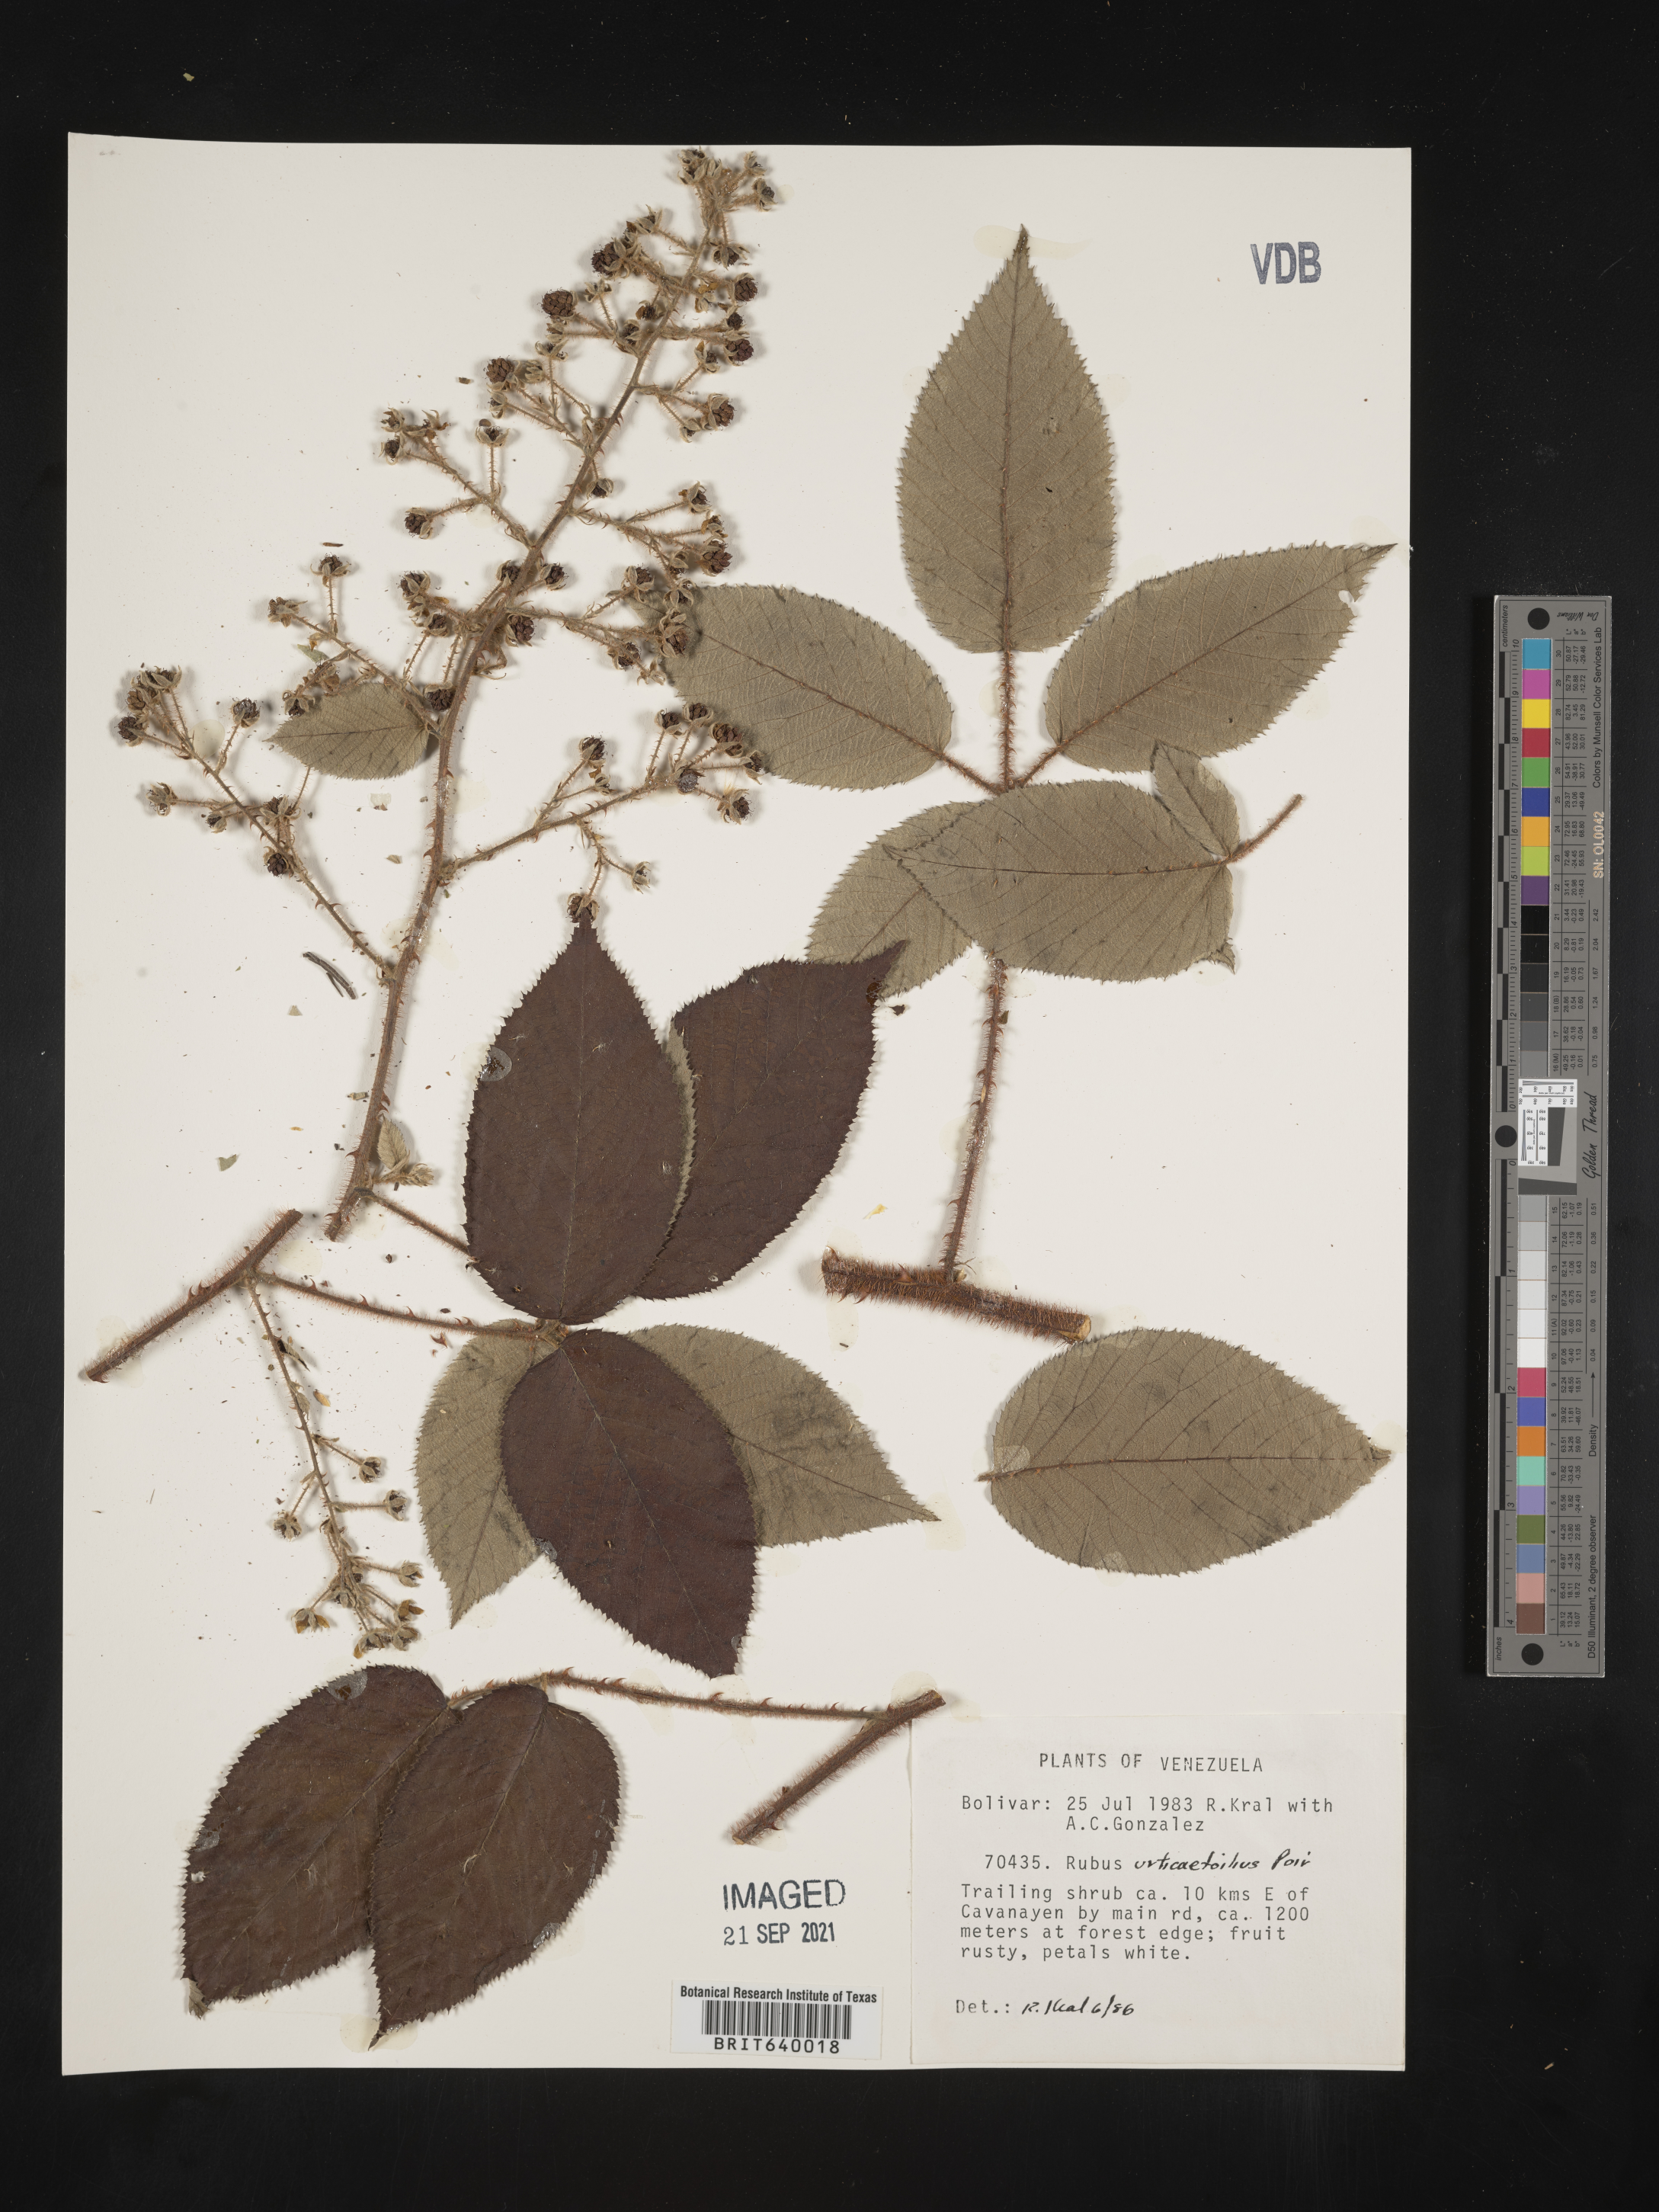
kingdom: Plantae
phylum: Tracheophyta
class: Magnoliopsida
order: Rosales
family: Rosaceae
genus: Rubus
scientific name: Rubus
